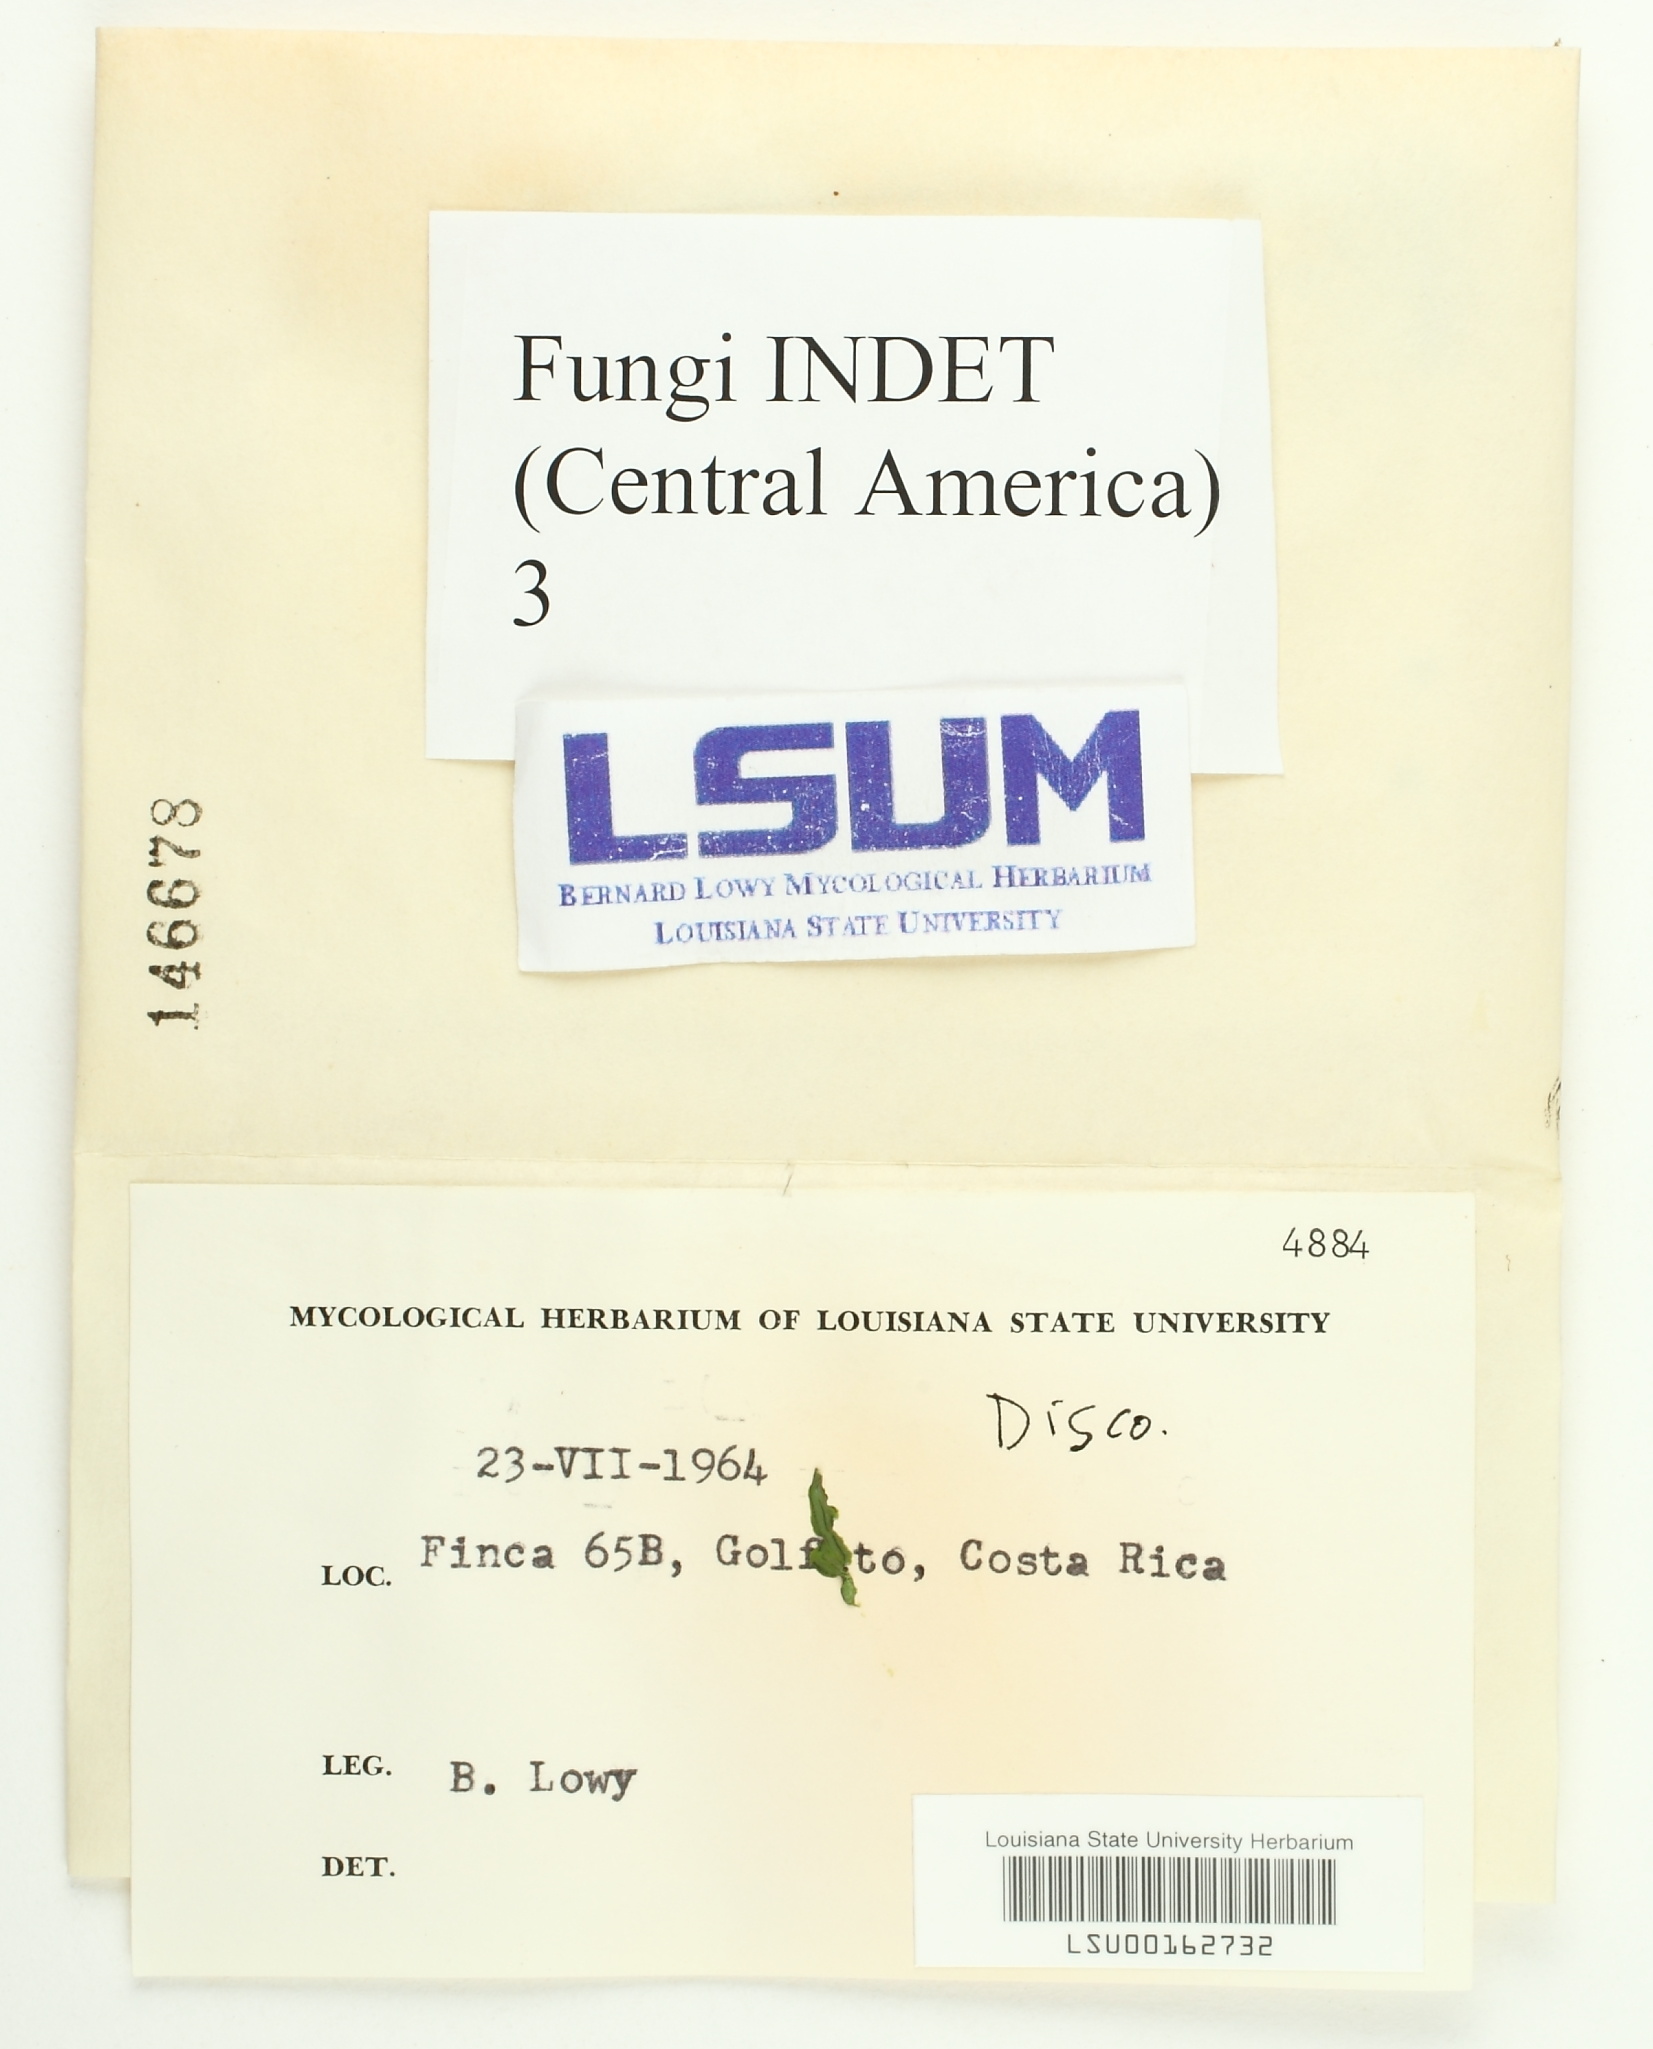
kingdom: Fungi
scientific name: Fungi
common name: Fungi
